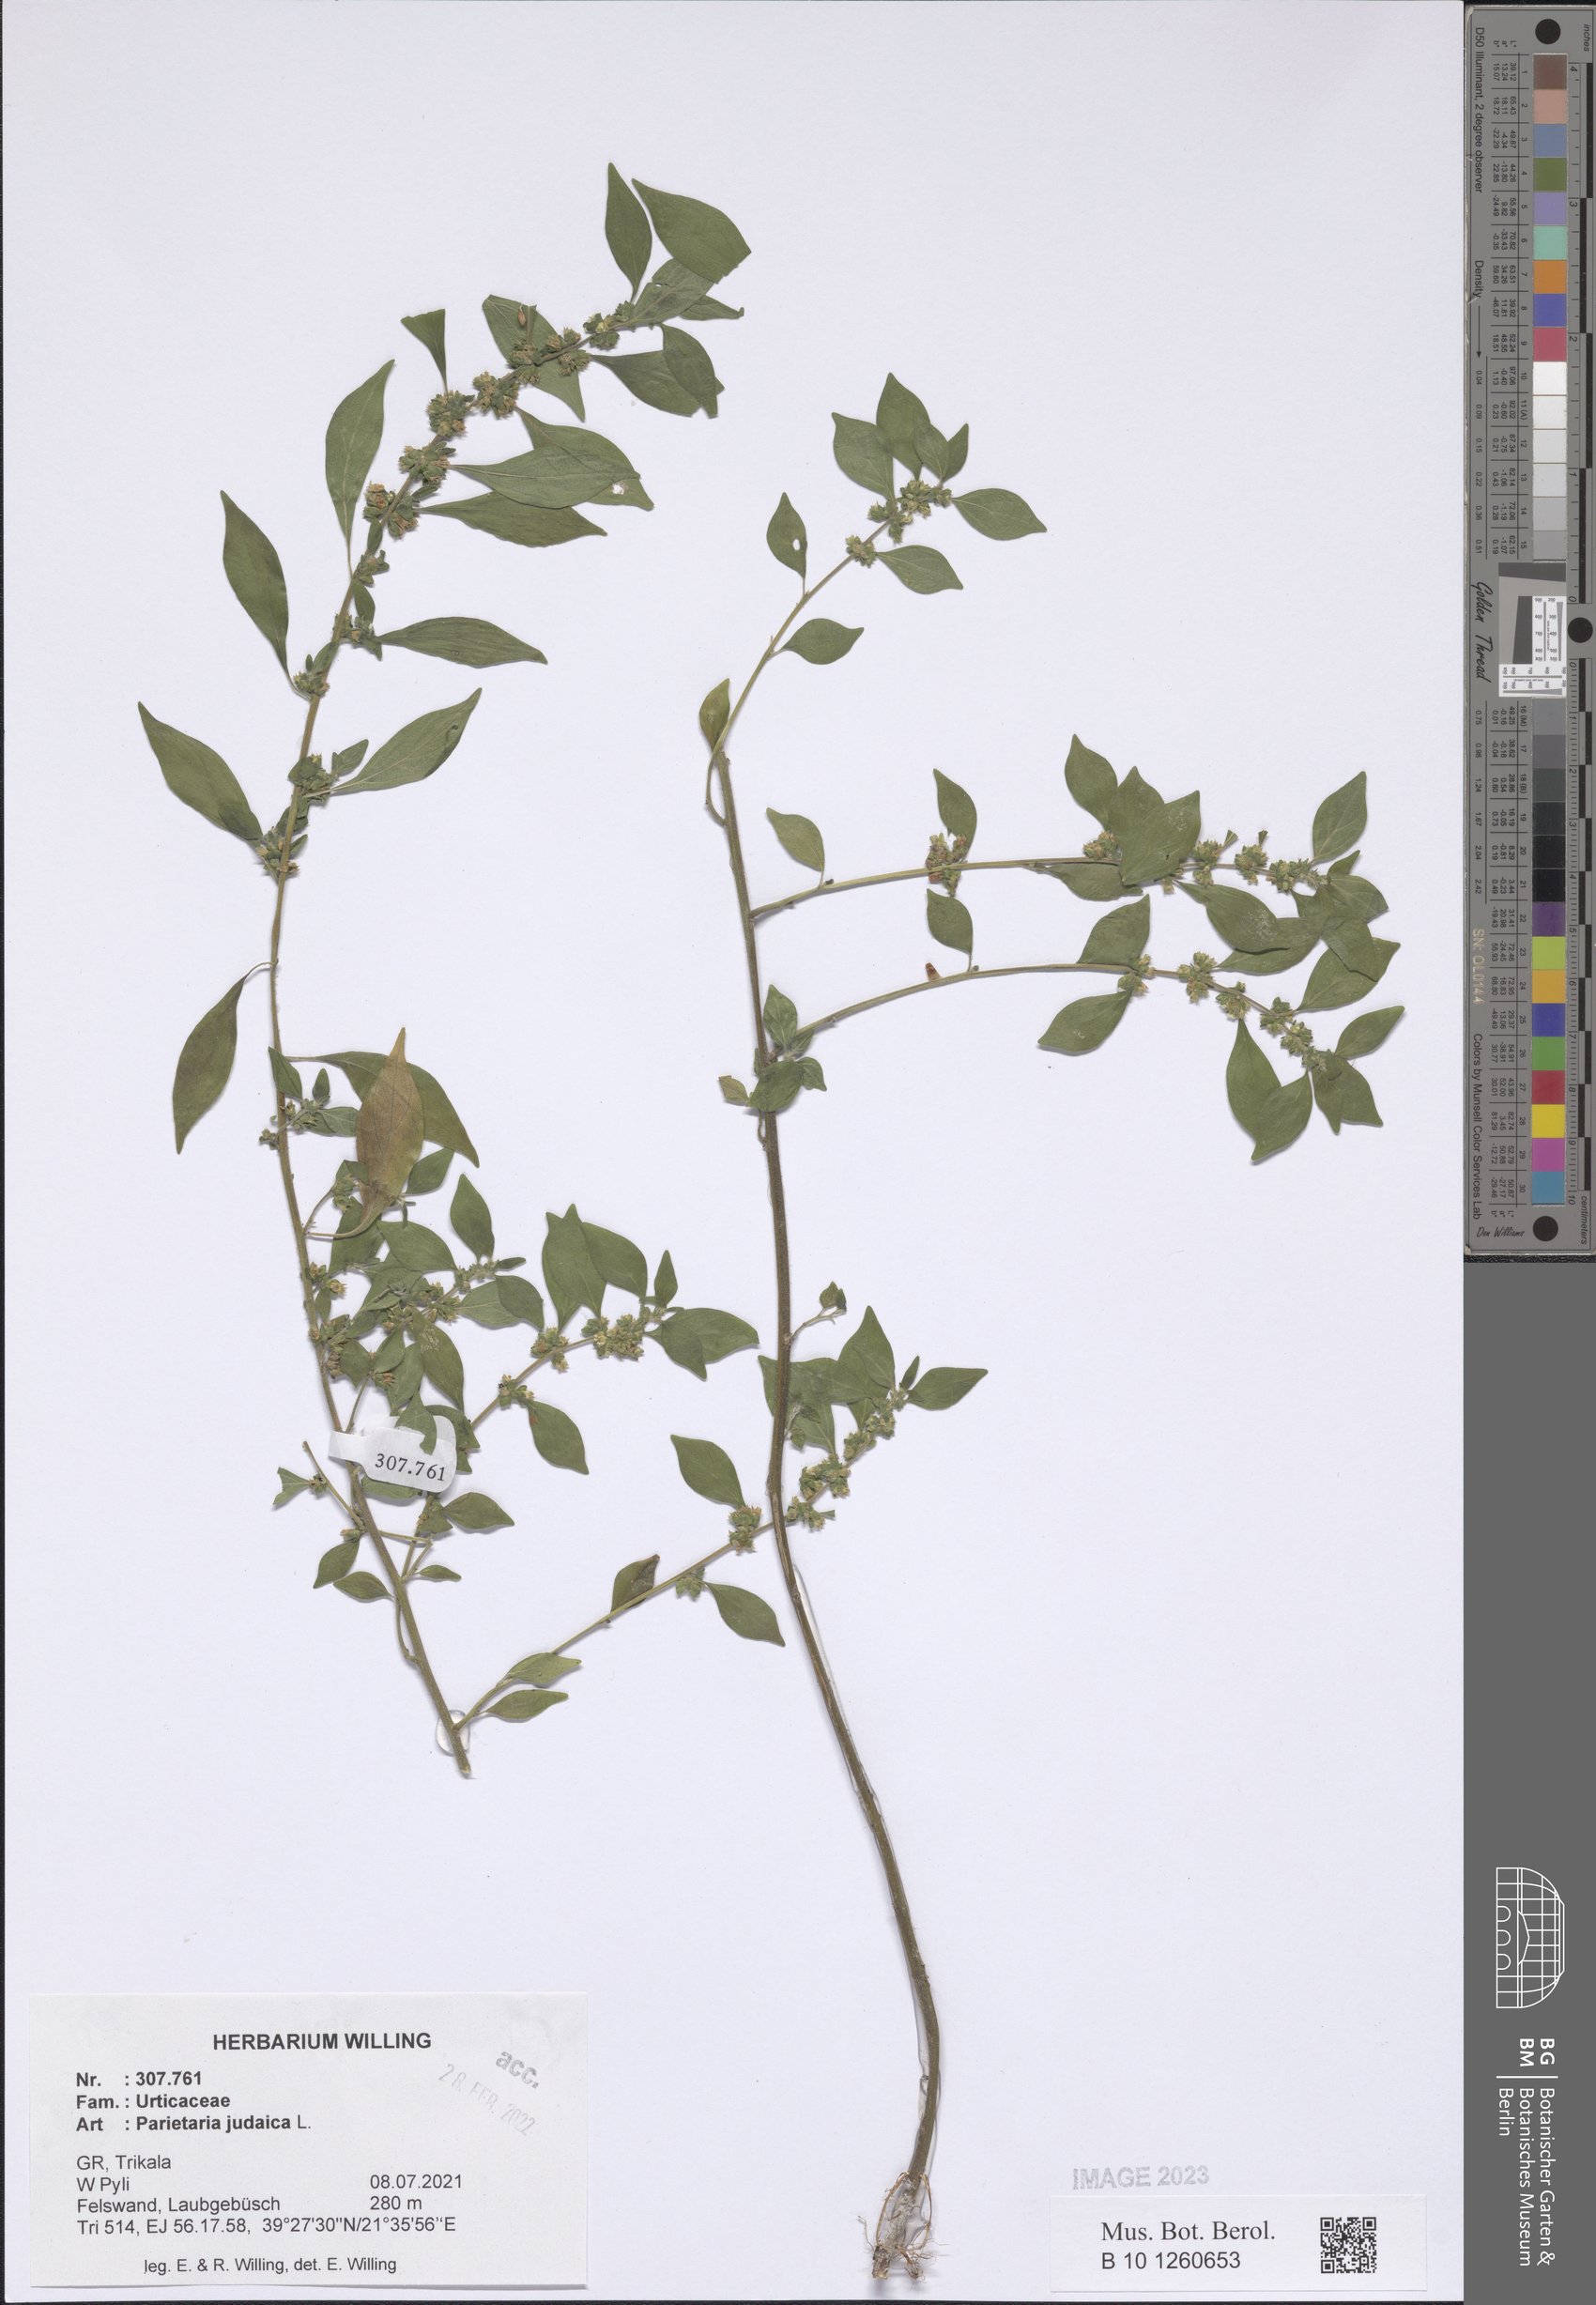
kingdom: Plantae
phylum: Tracheophyta
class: Magnoliopsida
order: Rosales
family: Urticaceae
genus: Parietaria
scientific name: Parietaria judaica
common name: Pellitory-of-the-wall
